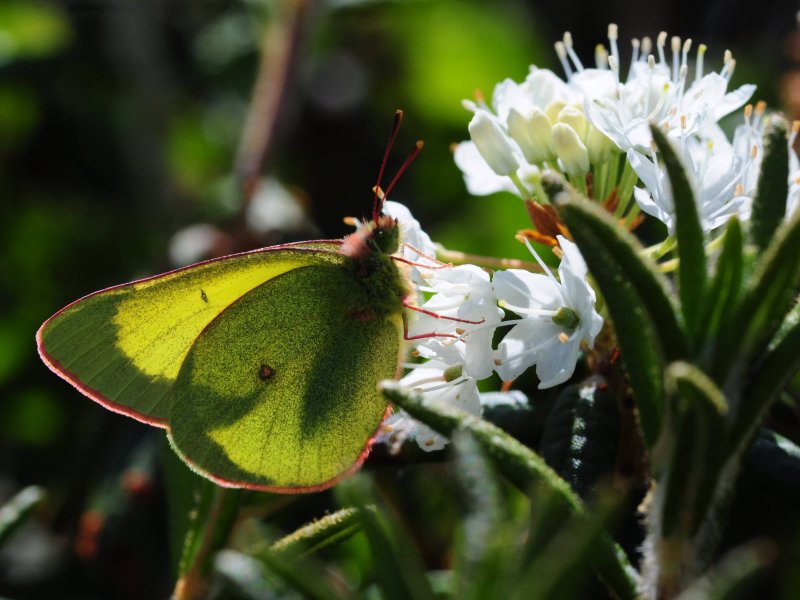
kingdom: Animalia
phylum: Arthropoda
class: Insecta
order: Lepidoptera
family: Pieridae
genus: Colias
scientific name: Colias pelidne
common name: Pelidne Sulphur
